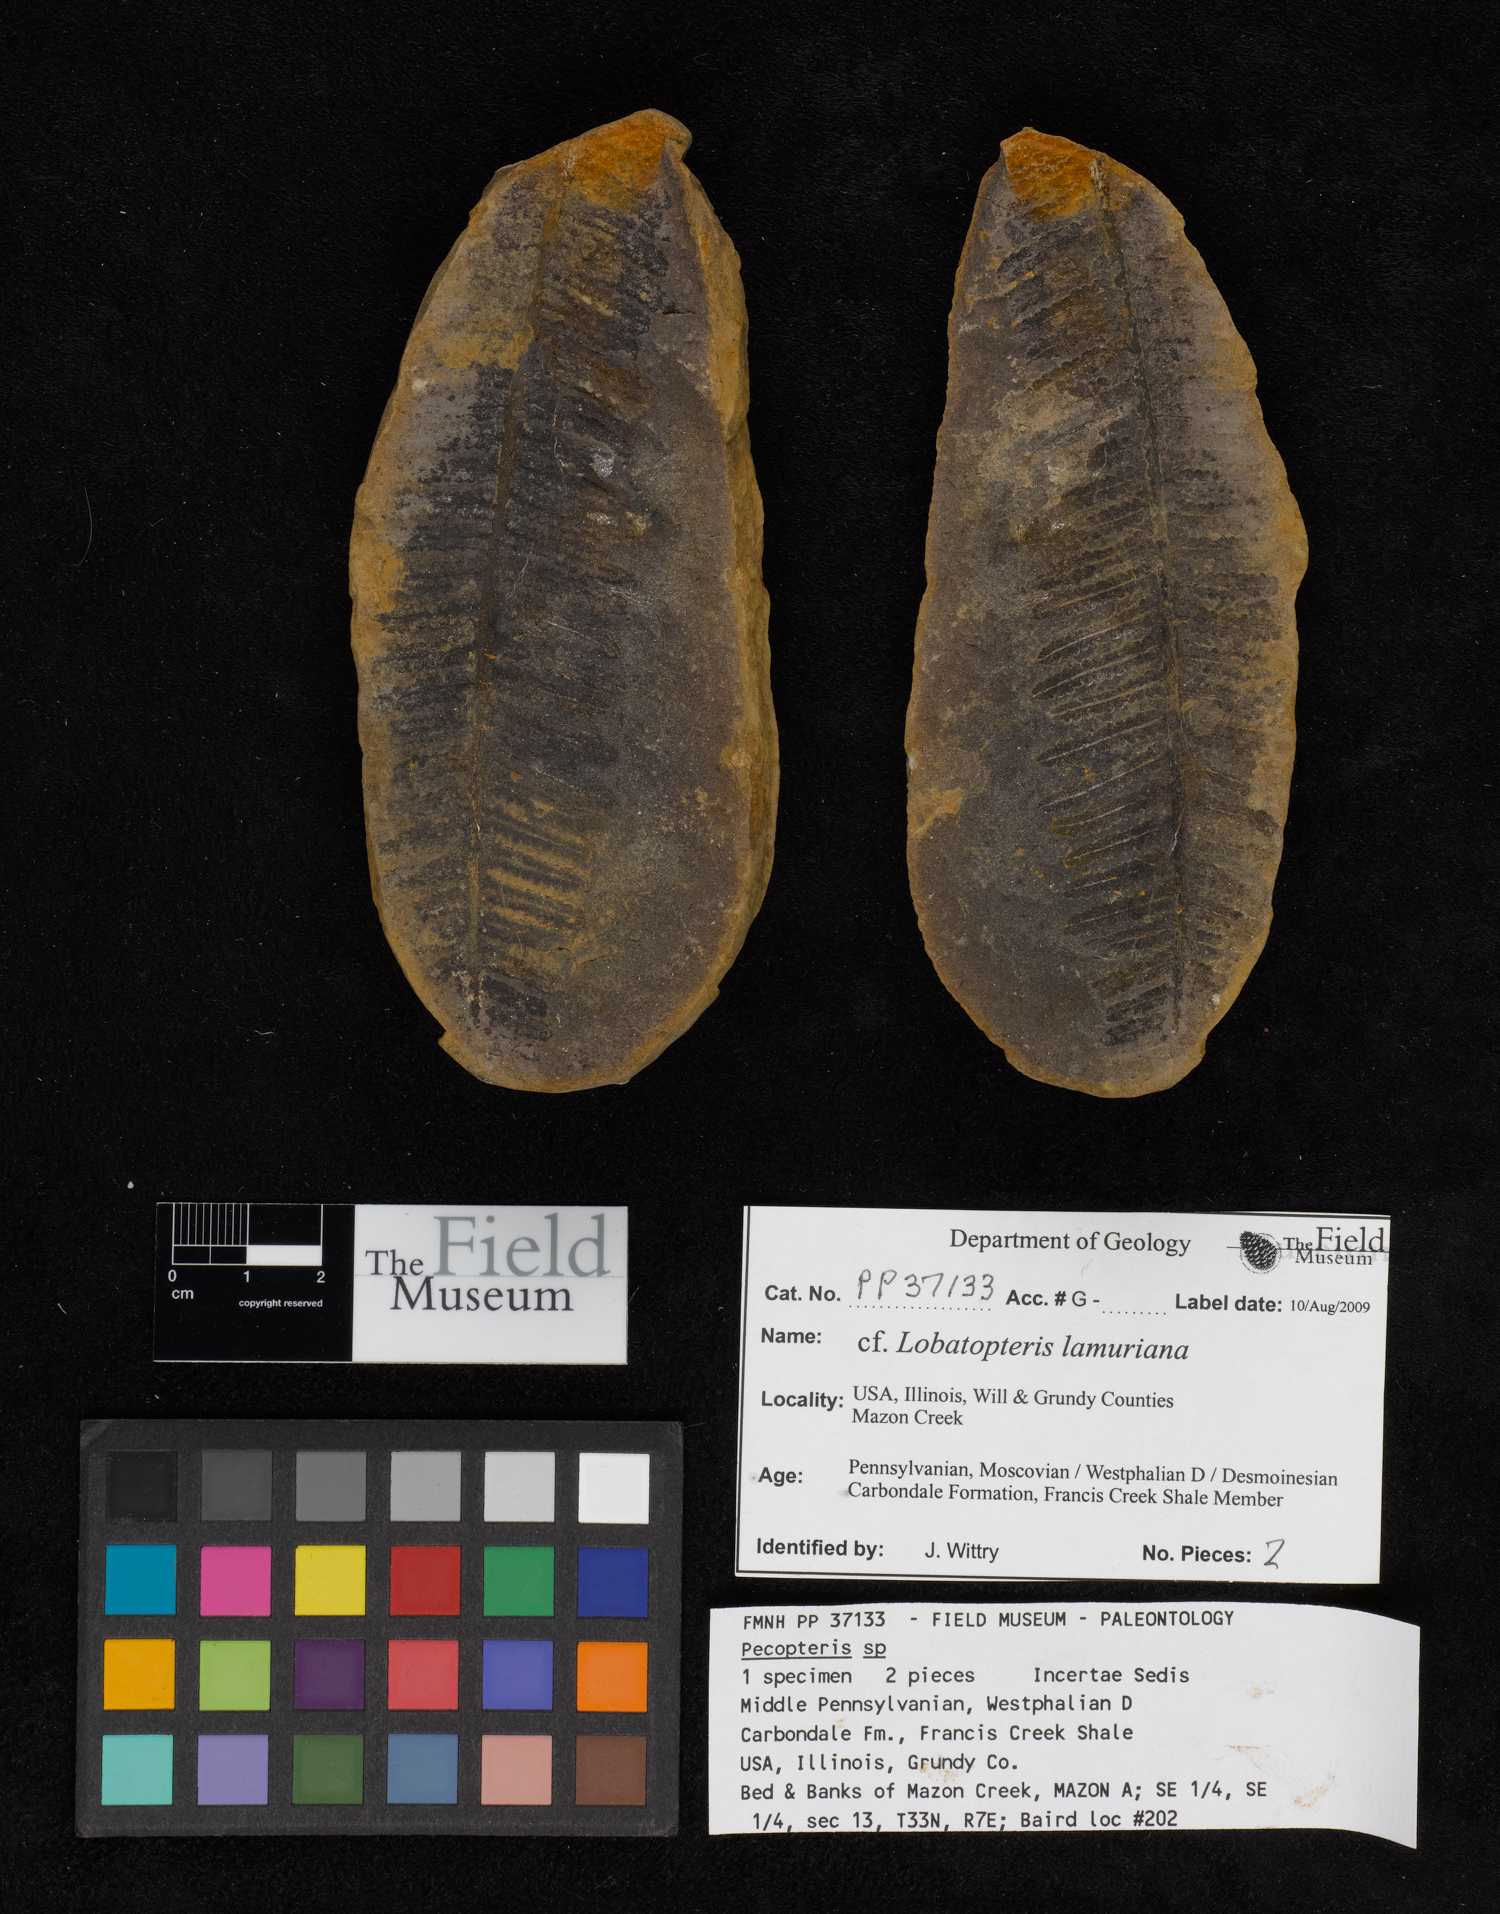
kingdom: Plantae
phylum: Tracheophyta
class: Polypodiopsida
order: Marattiales
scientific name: Marattiales
